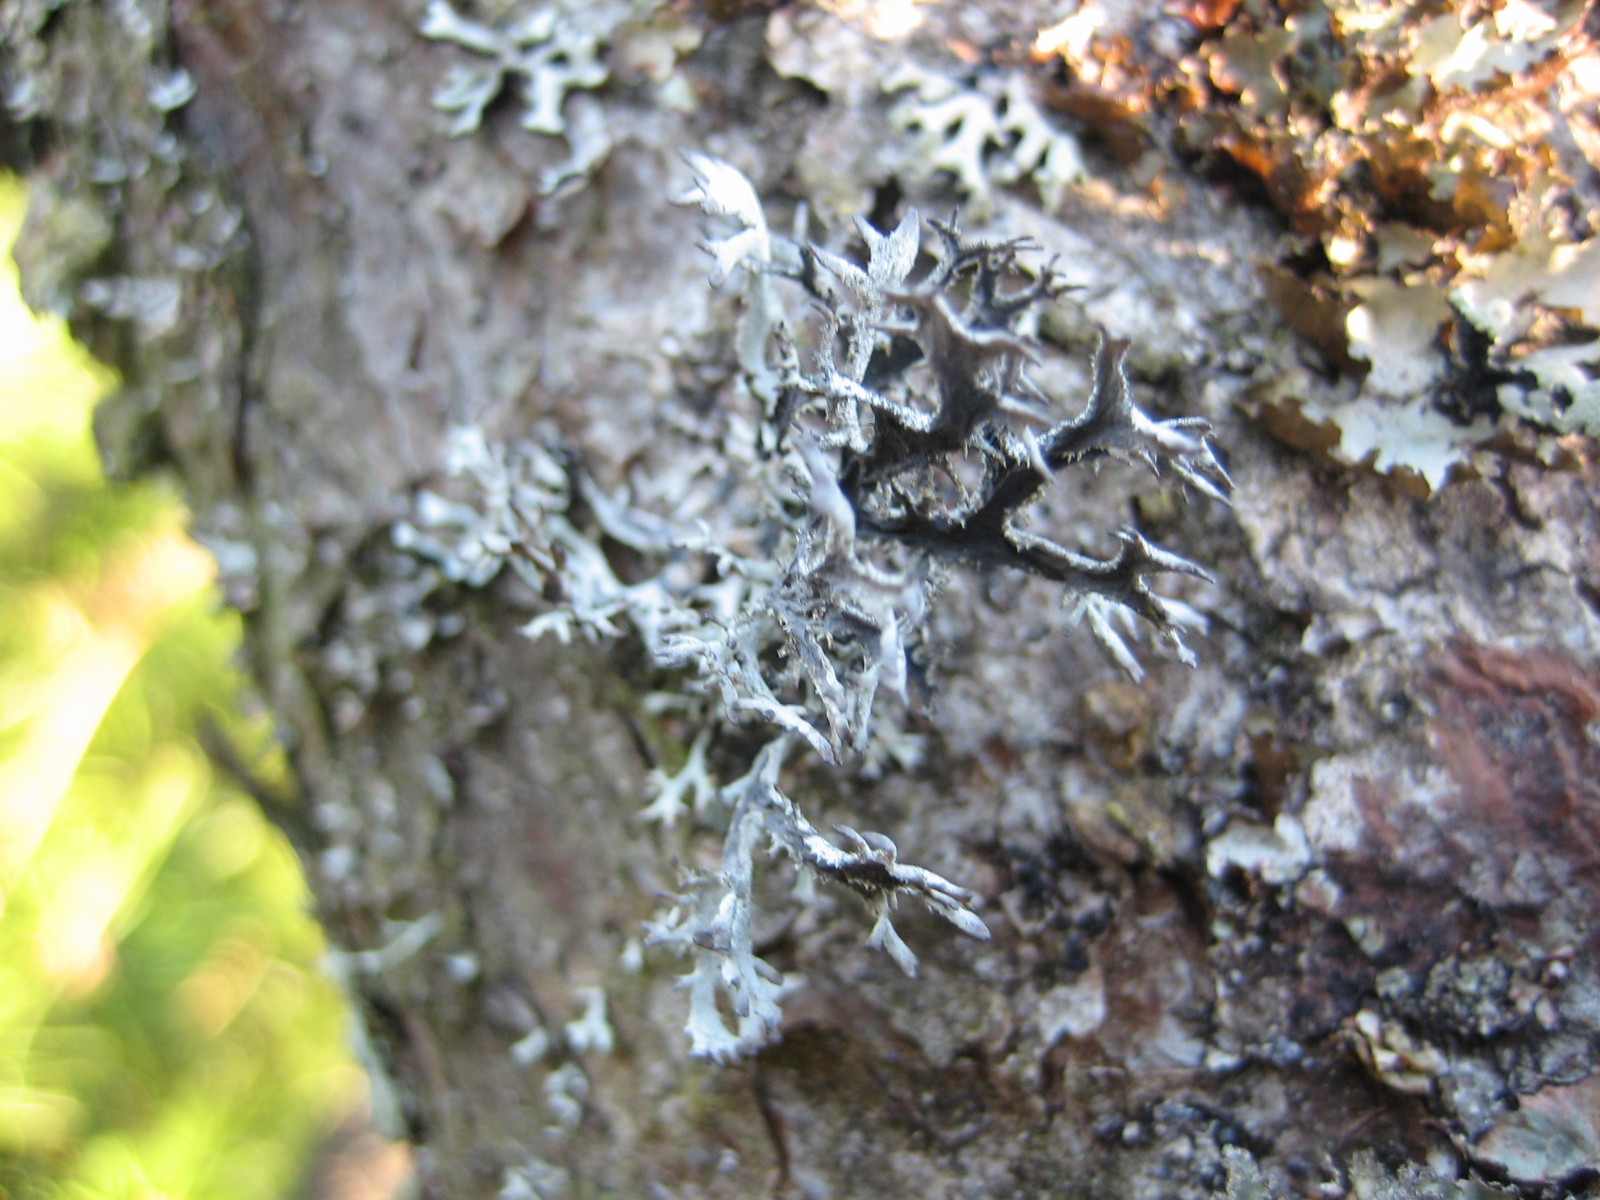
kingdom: Fungi
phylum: Ascomycota
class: Lecanoromycetes
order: Lecanorales
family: Parmeliaceae
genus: Pseudevernia
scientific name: Pseudevernia furfuracea
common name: grå fyrrelav
